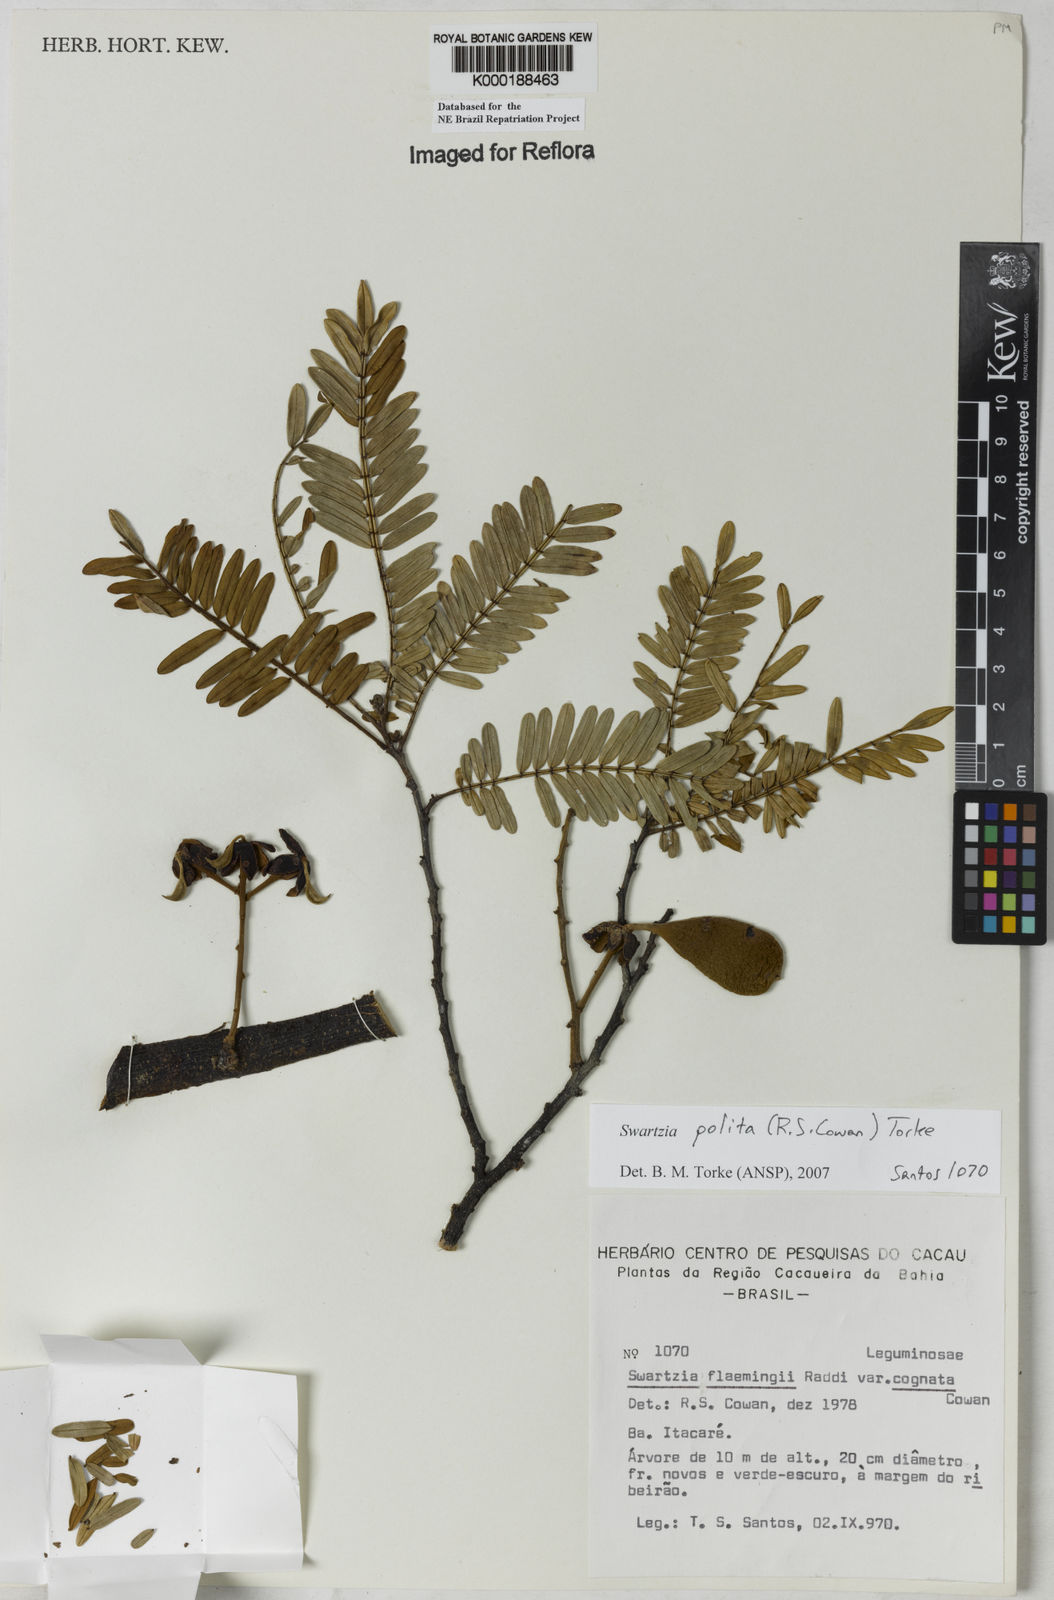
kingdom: Plantae
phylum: Tracheophyta
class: Magnoliopsida
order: Fabales
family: Fabaceae
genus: Swartzia
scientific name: Swartzia polita
